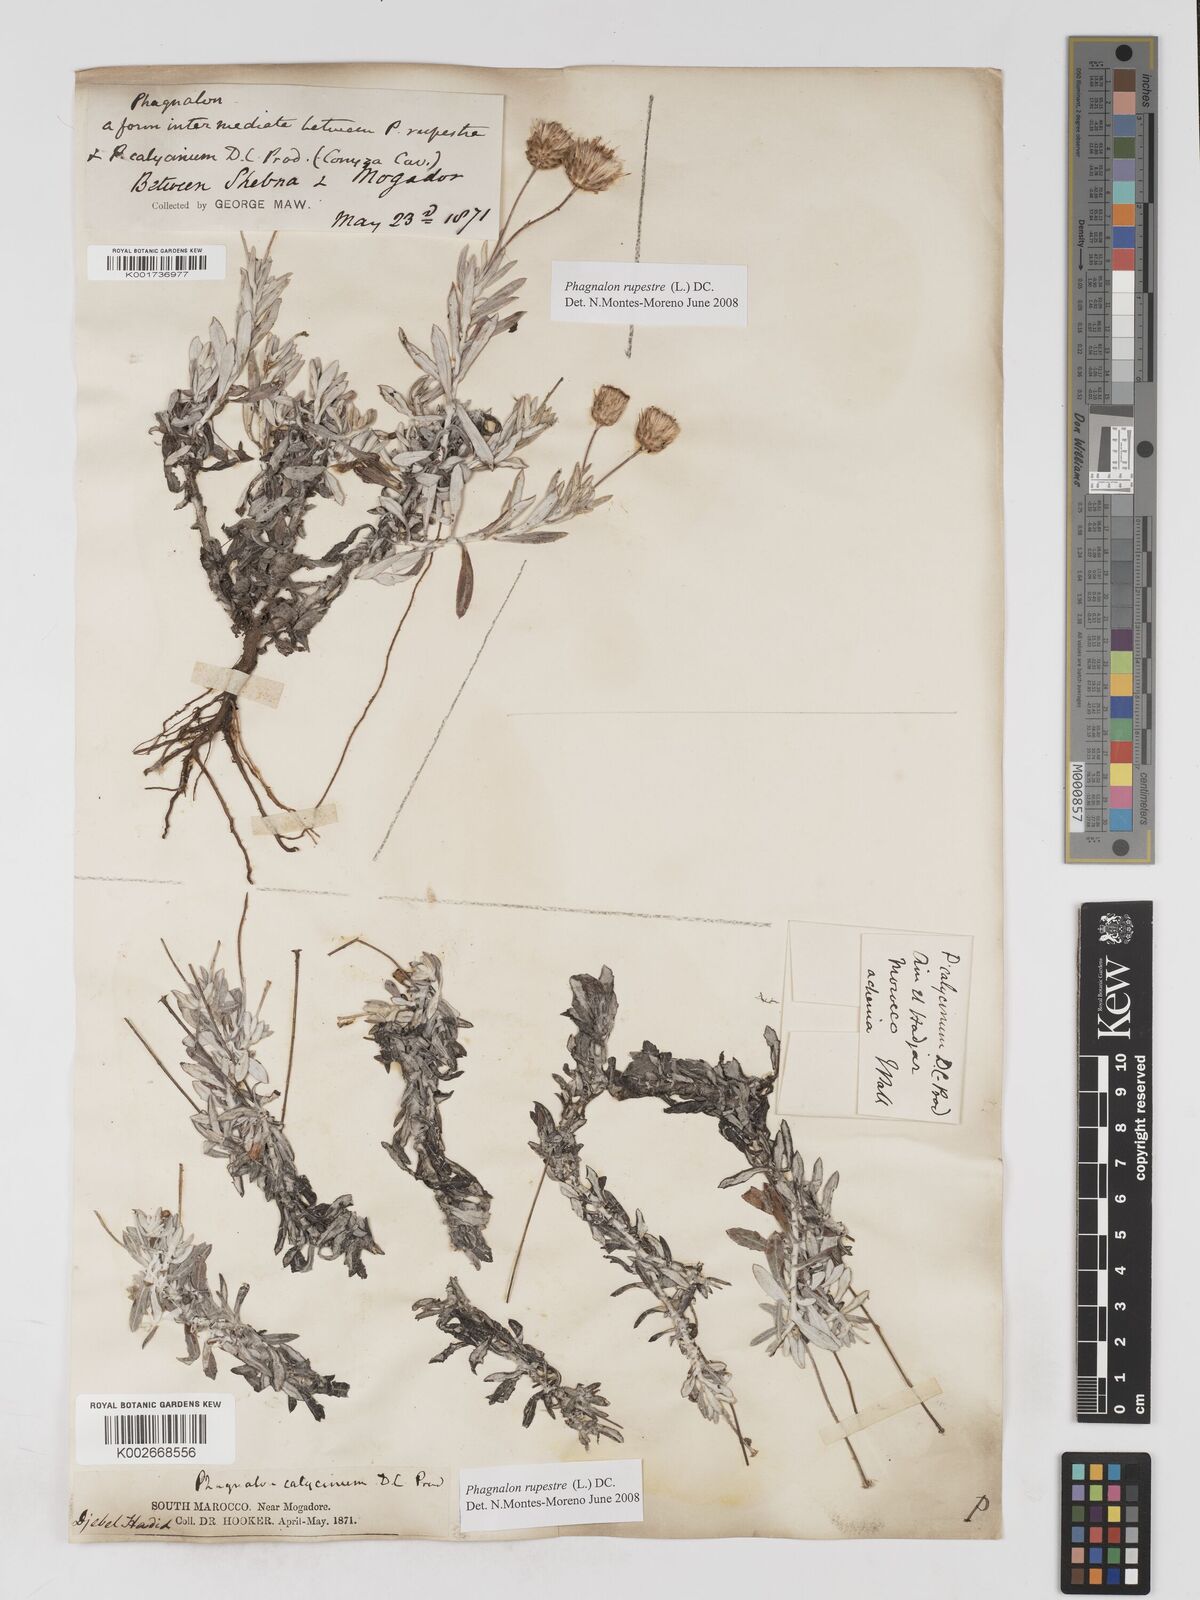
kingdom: Plantae
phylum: Tracheophyta
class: Magnoliopsida
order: Asterales
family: Asteraceae
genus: Phagnalon
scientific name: Phagnalon rupestre
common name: Rock phagnalon
